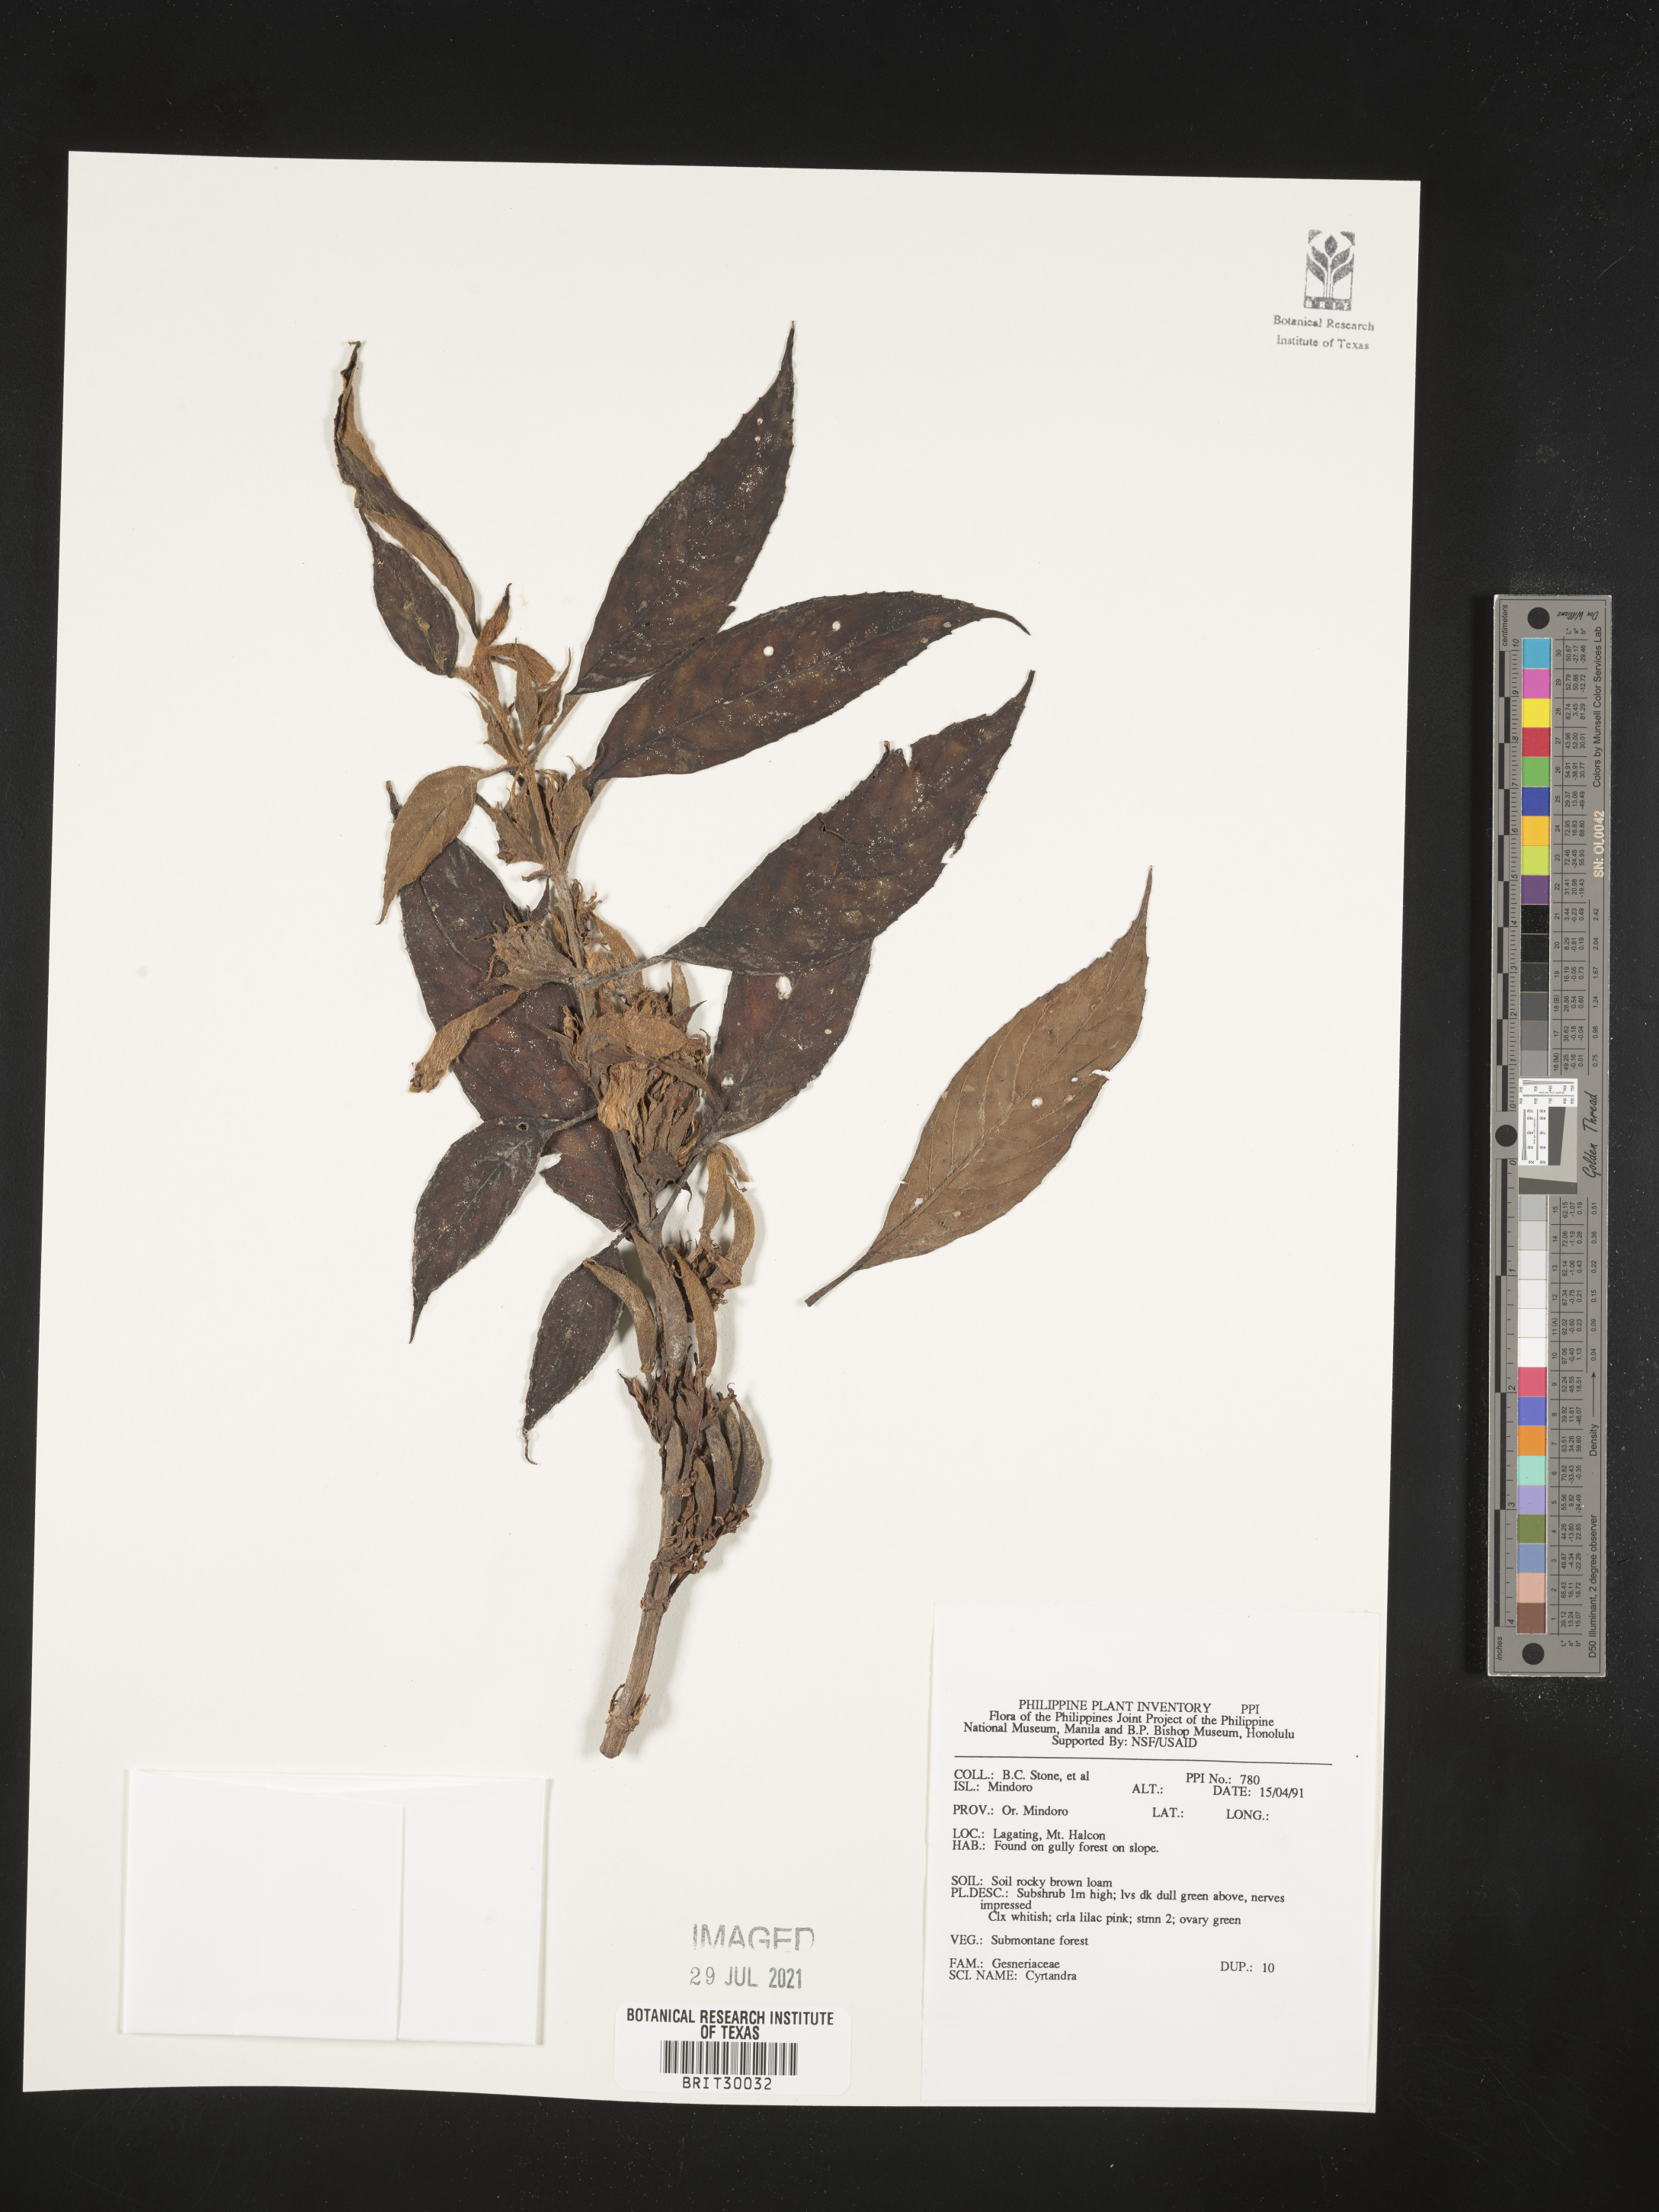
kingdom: Plantae
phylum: Tracheophyta
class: Magnoliopsida
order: Lamiales
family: Gesneriaceae
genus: Cyrtandra
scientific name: Cyrtandra
